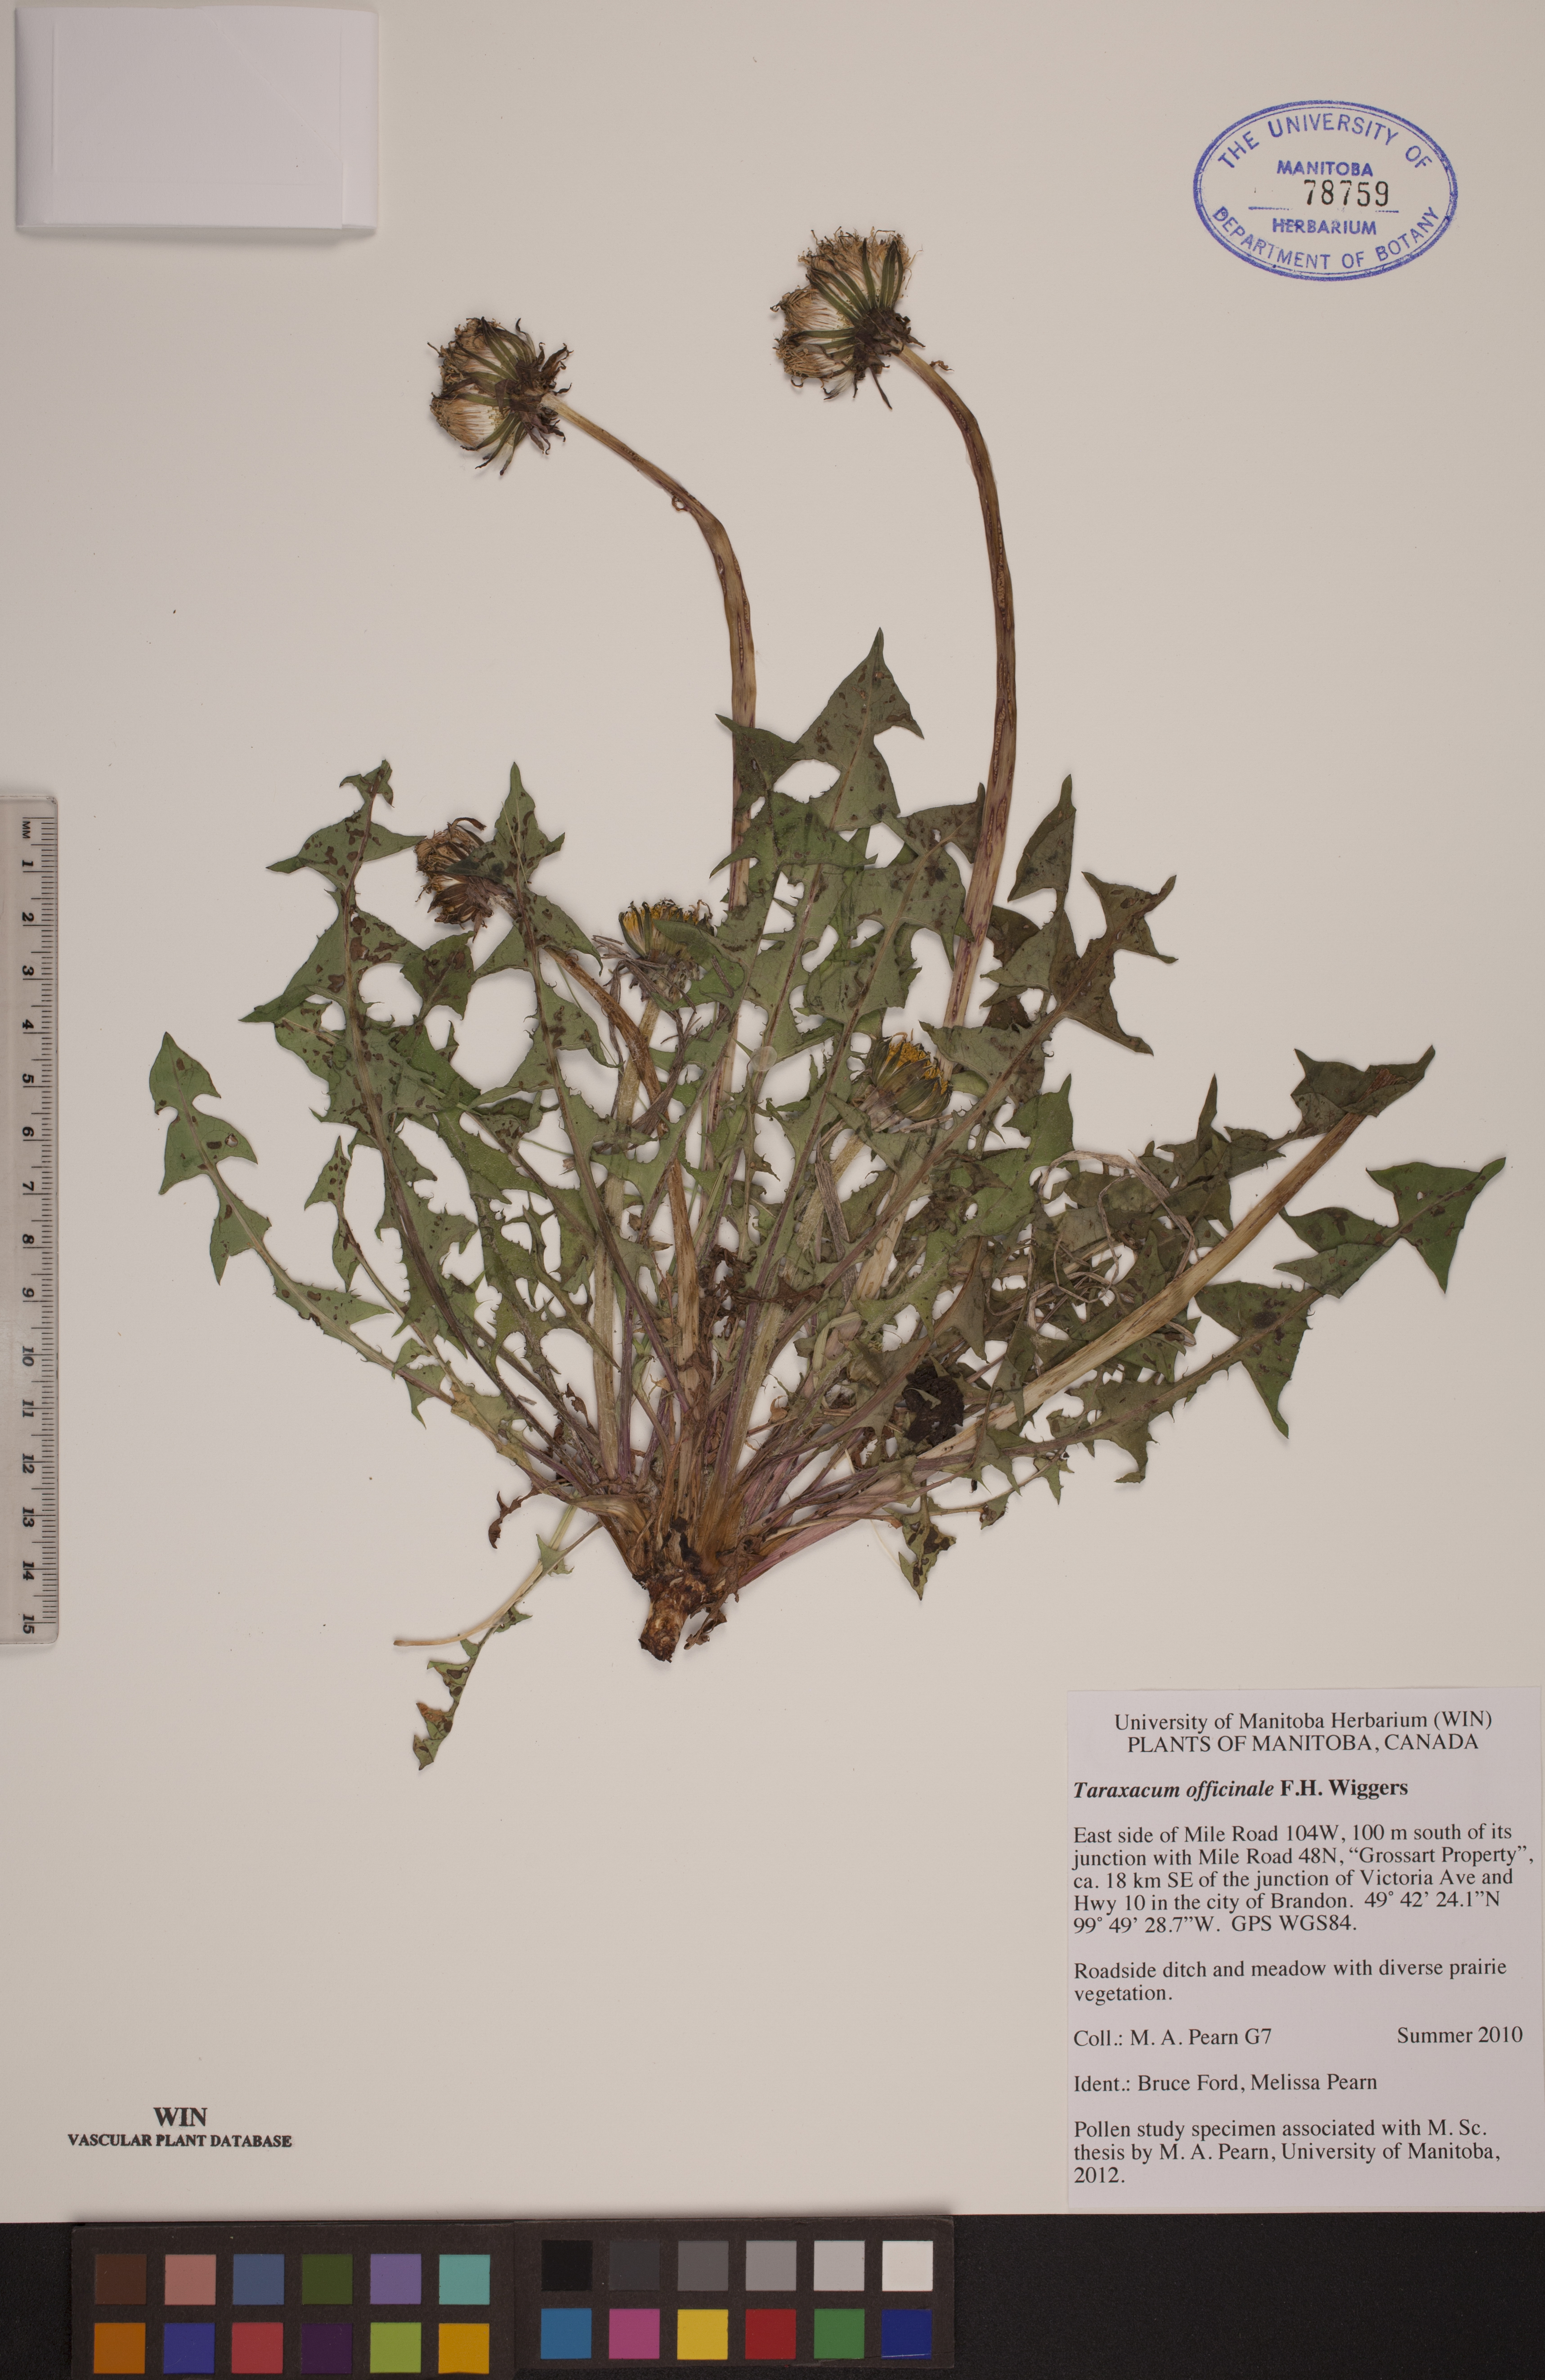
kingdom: Plantae
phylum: Tracheophyta
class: Magnoliopsida
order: Asterales
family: Asteraceae
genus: Taraxacum
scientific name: Taraxacum officinale
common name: Common dandelion
